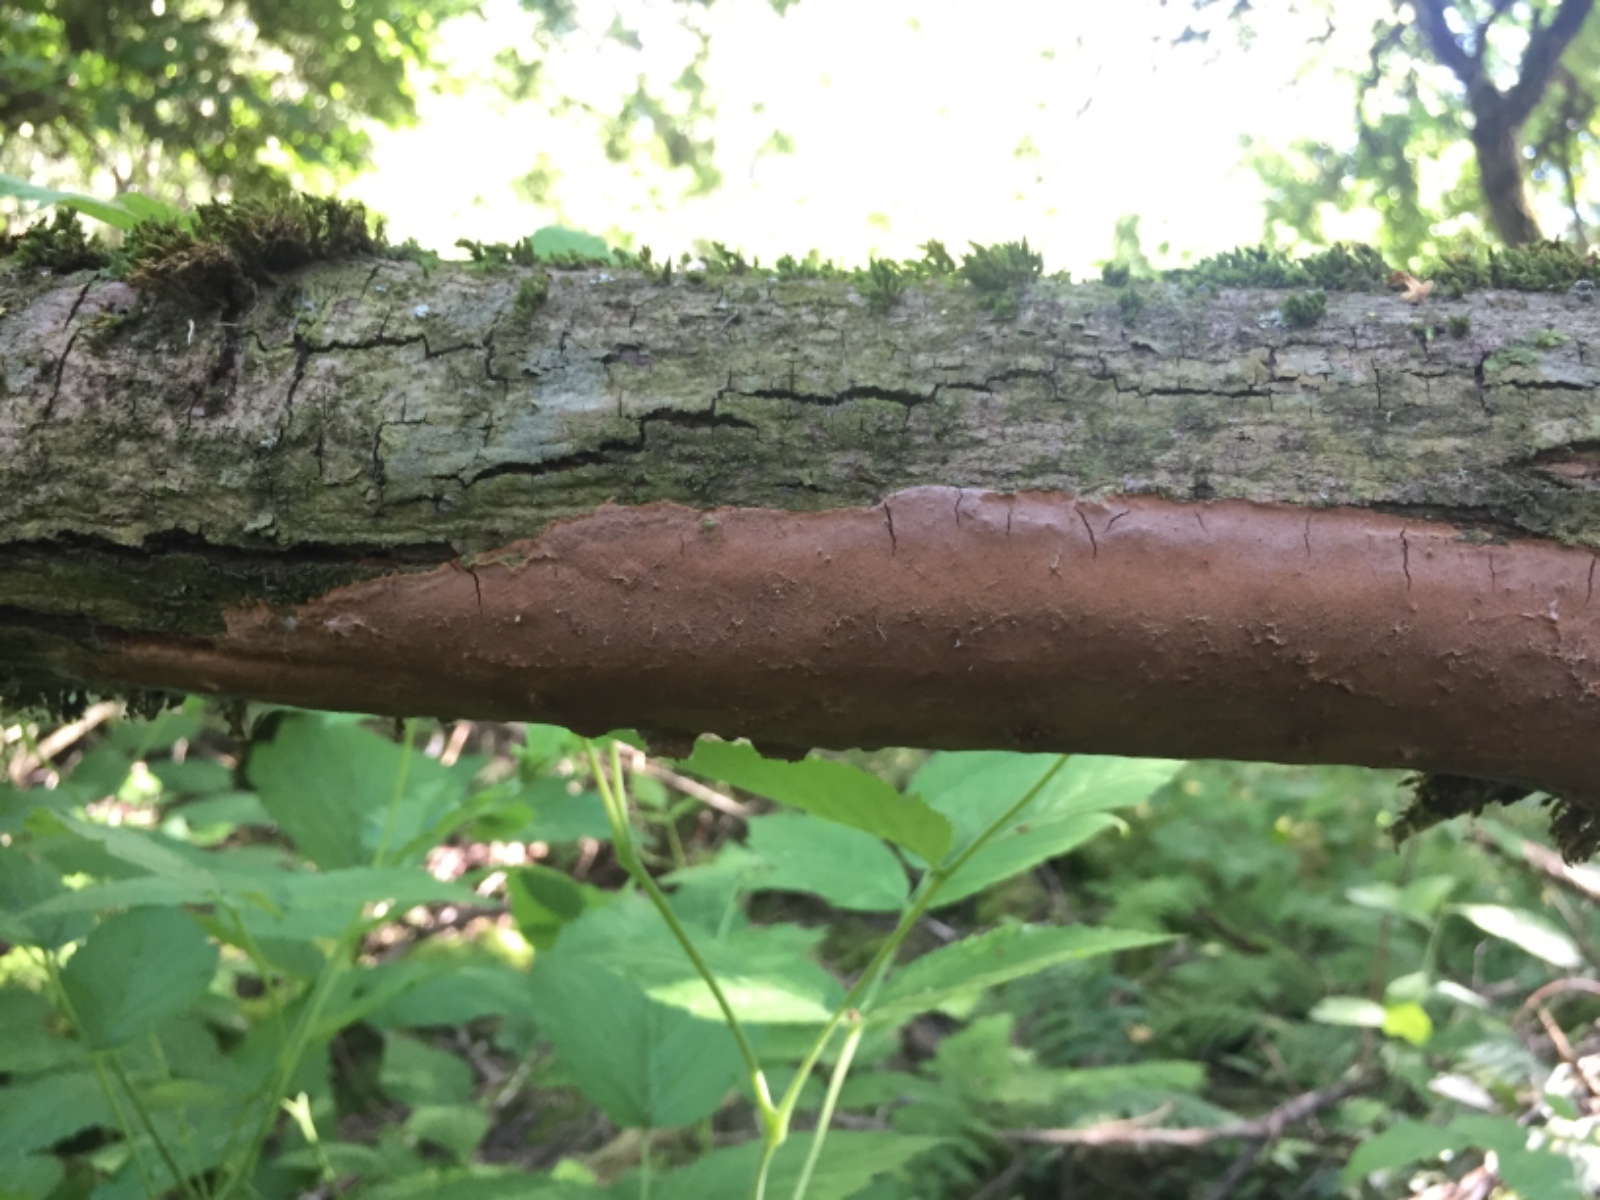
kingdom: Fungi
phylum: Basidiomycota
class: Agaricomycetes
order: Hymenochaetales
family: Hymenochaetaceae
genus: Fomitiporia
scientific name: Fomitiporia punctata
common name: pude-ildporesvamp
